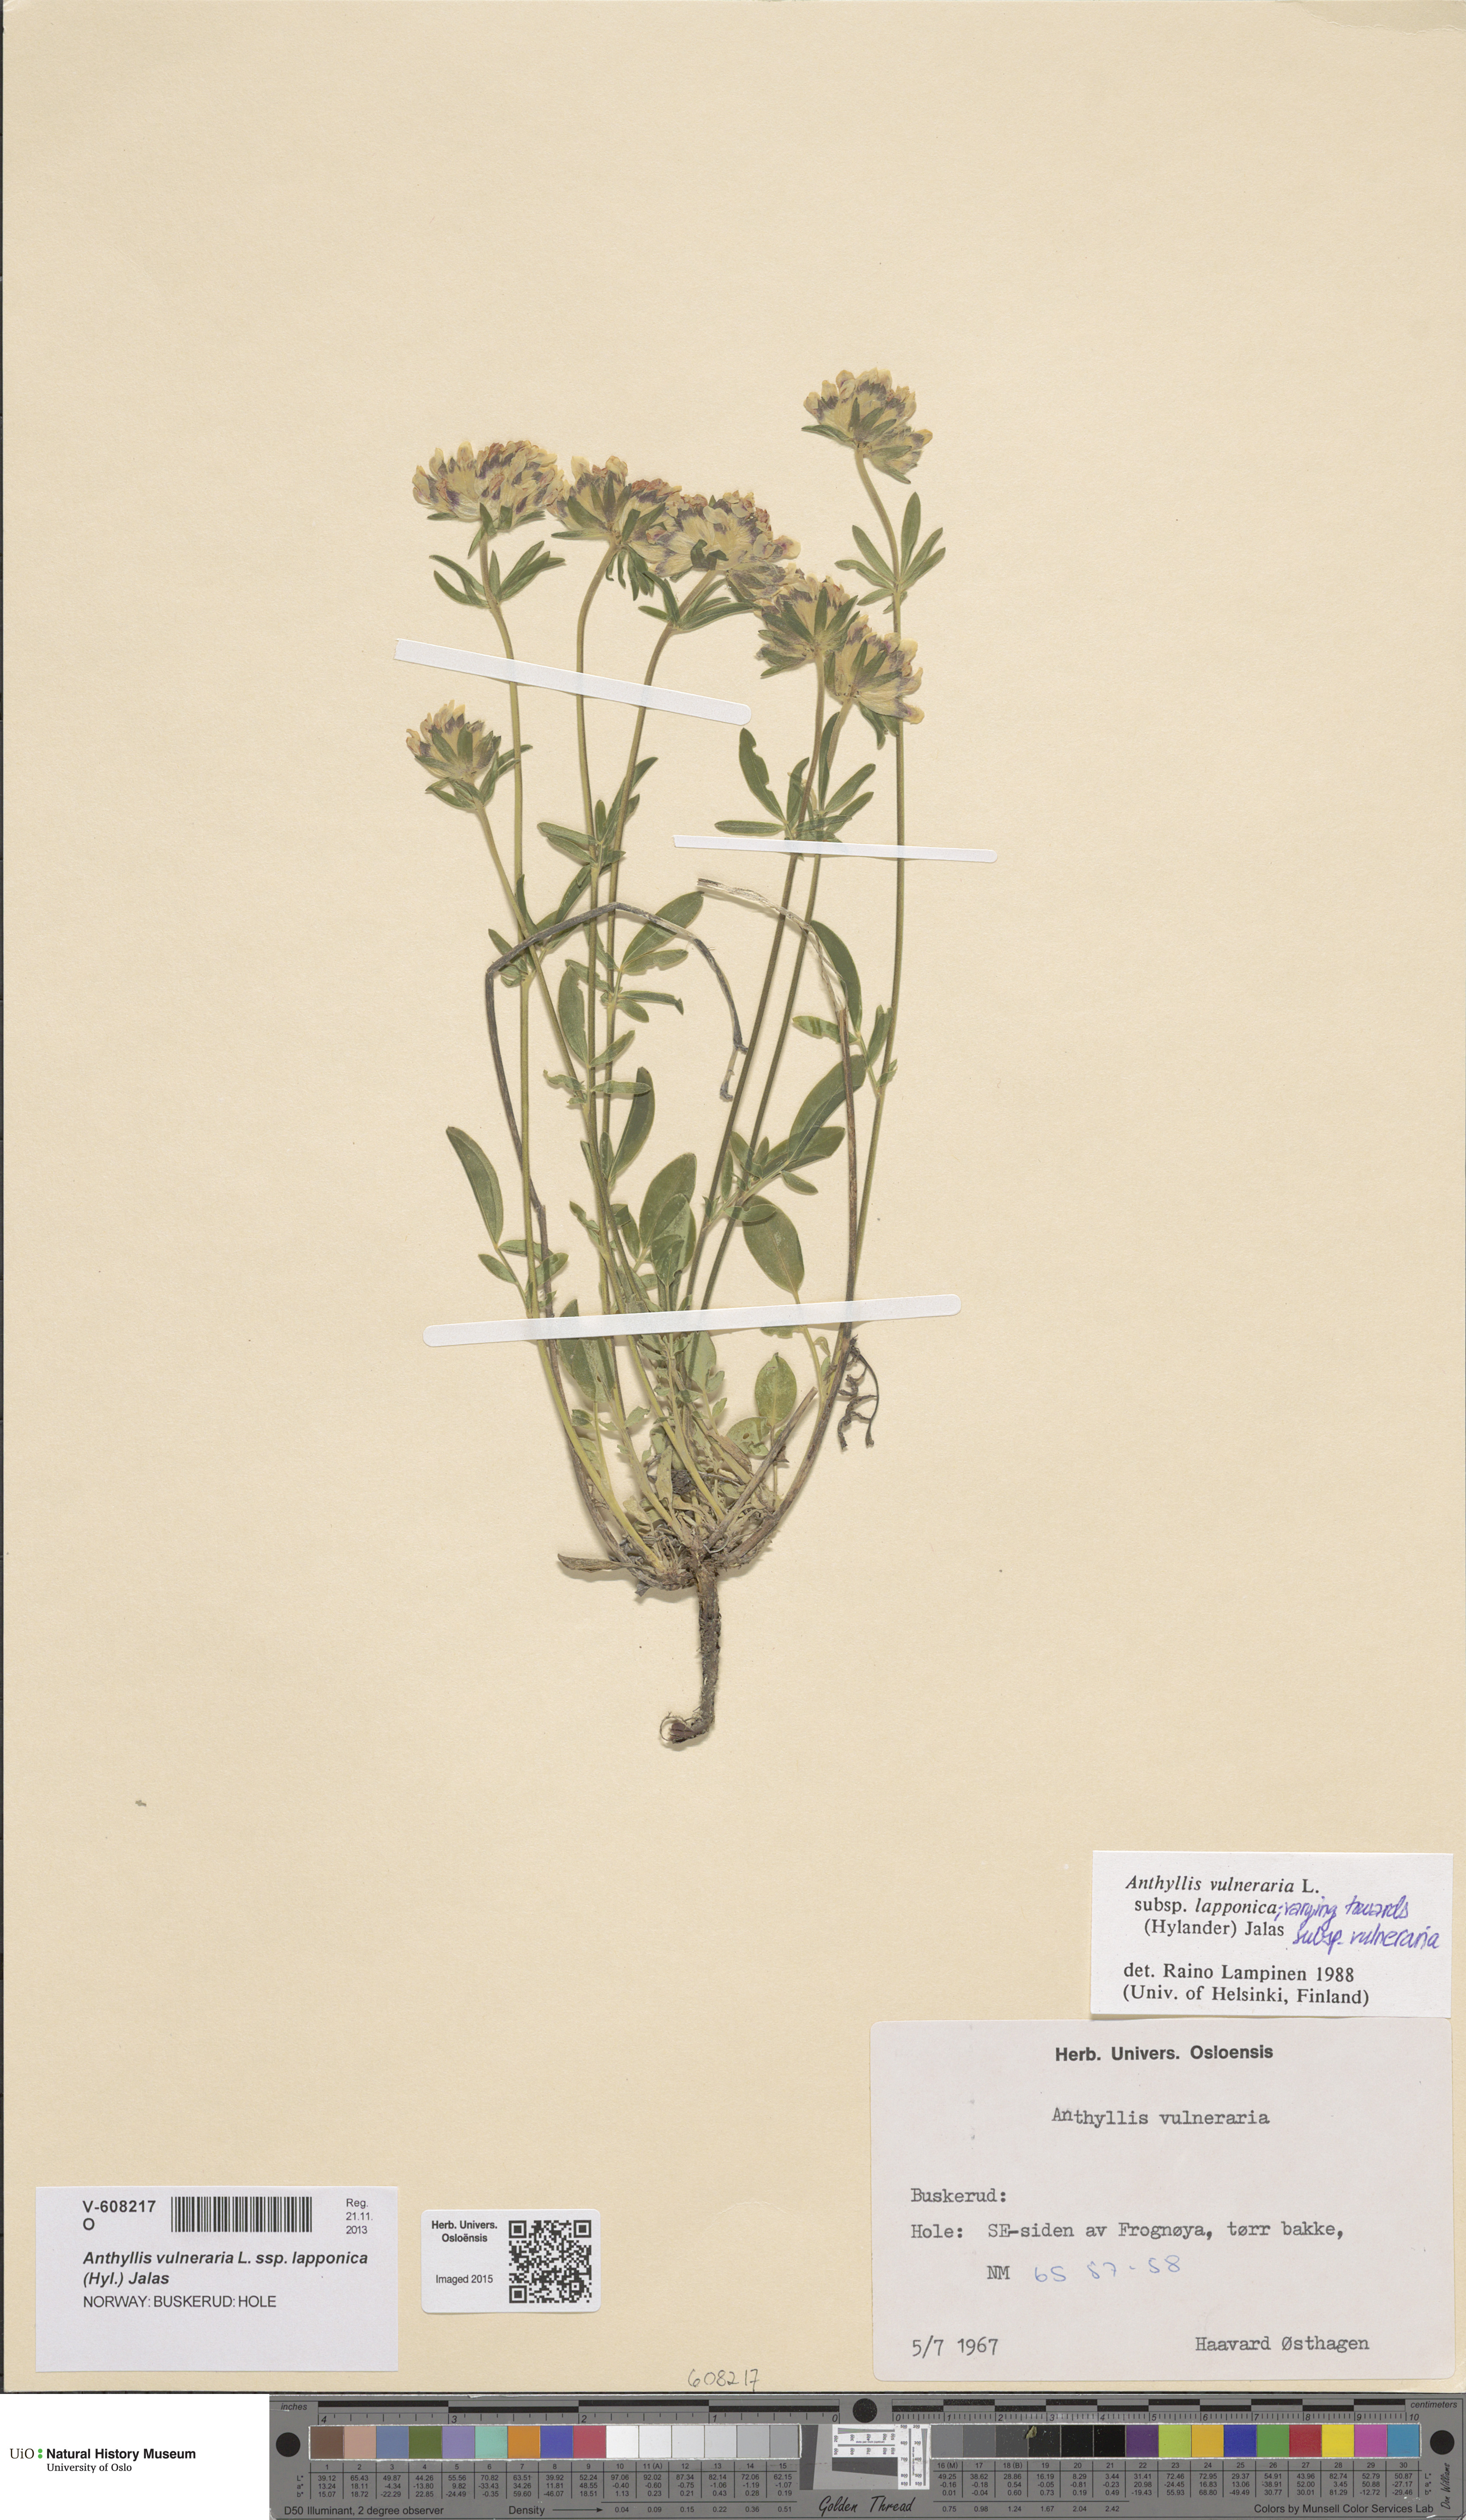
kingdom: Plantae
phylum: Tracheophyta
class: Magnoliopsida
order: Fabales
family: Fabaceae
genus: Anthyllis
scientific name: Anthyllis vulneraria
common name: Kidney vetch
